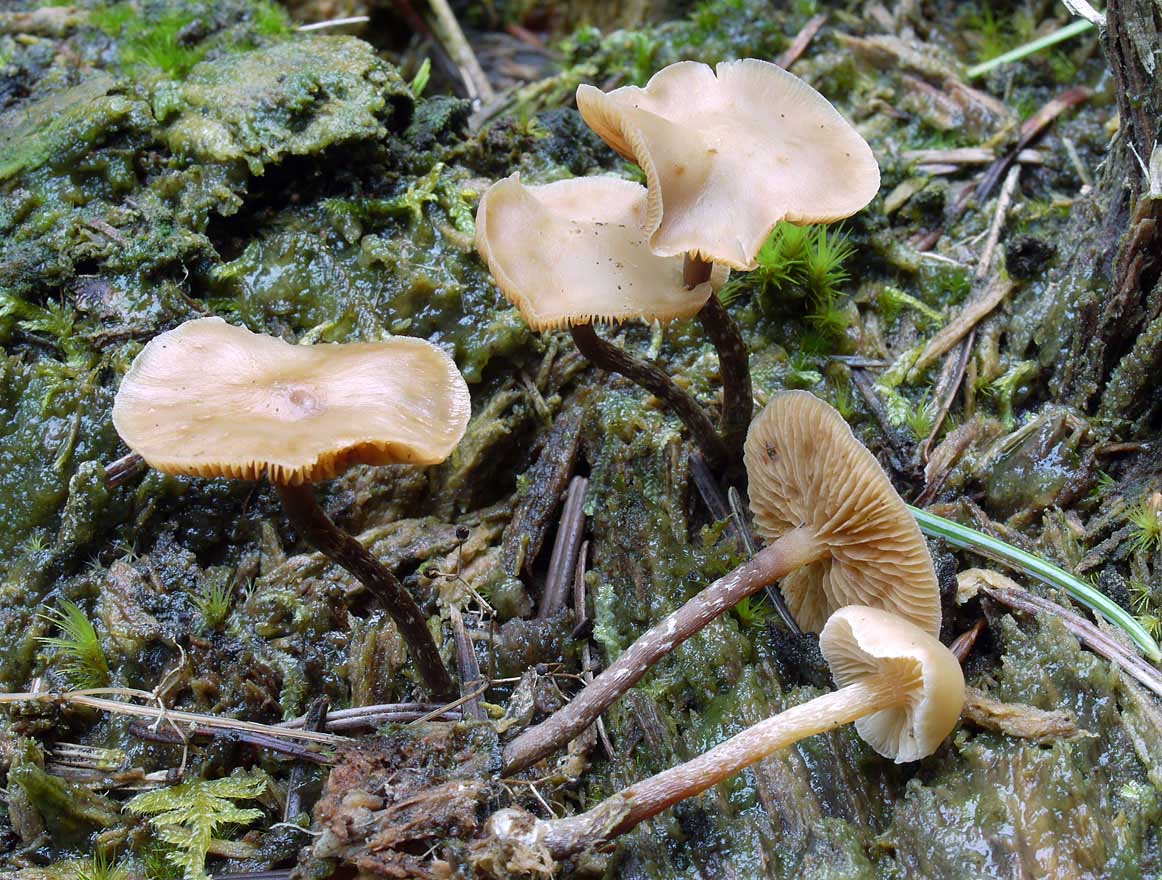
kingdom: Fungi
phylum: Basidiomycota
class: Agaricomycetes
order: Agaricales
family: Hymenogastraceae
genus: Galerina
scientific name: Galerina sideroides
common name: træflis-hjelmhat
